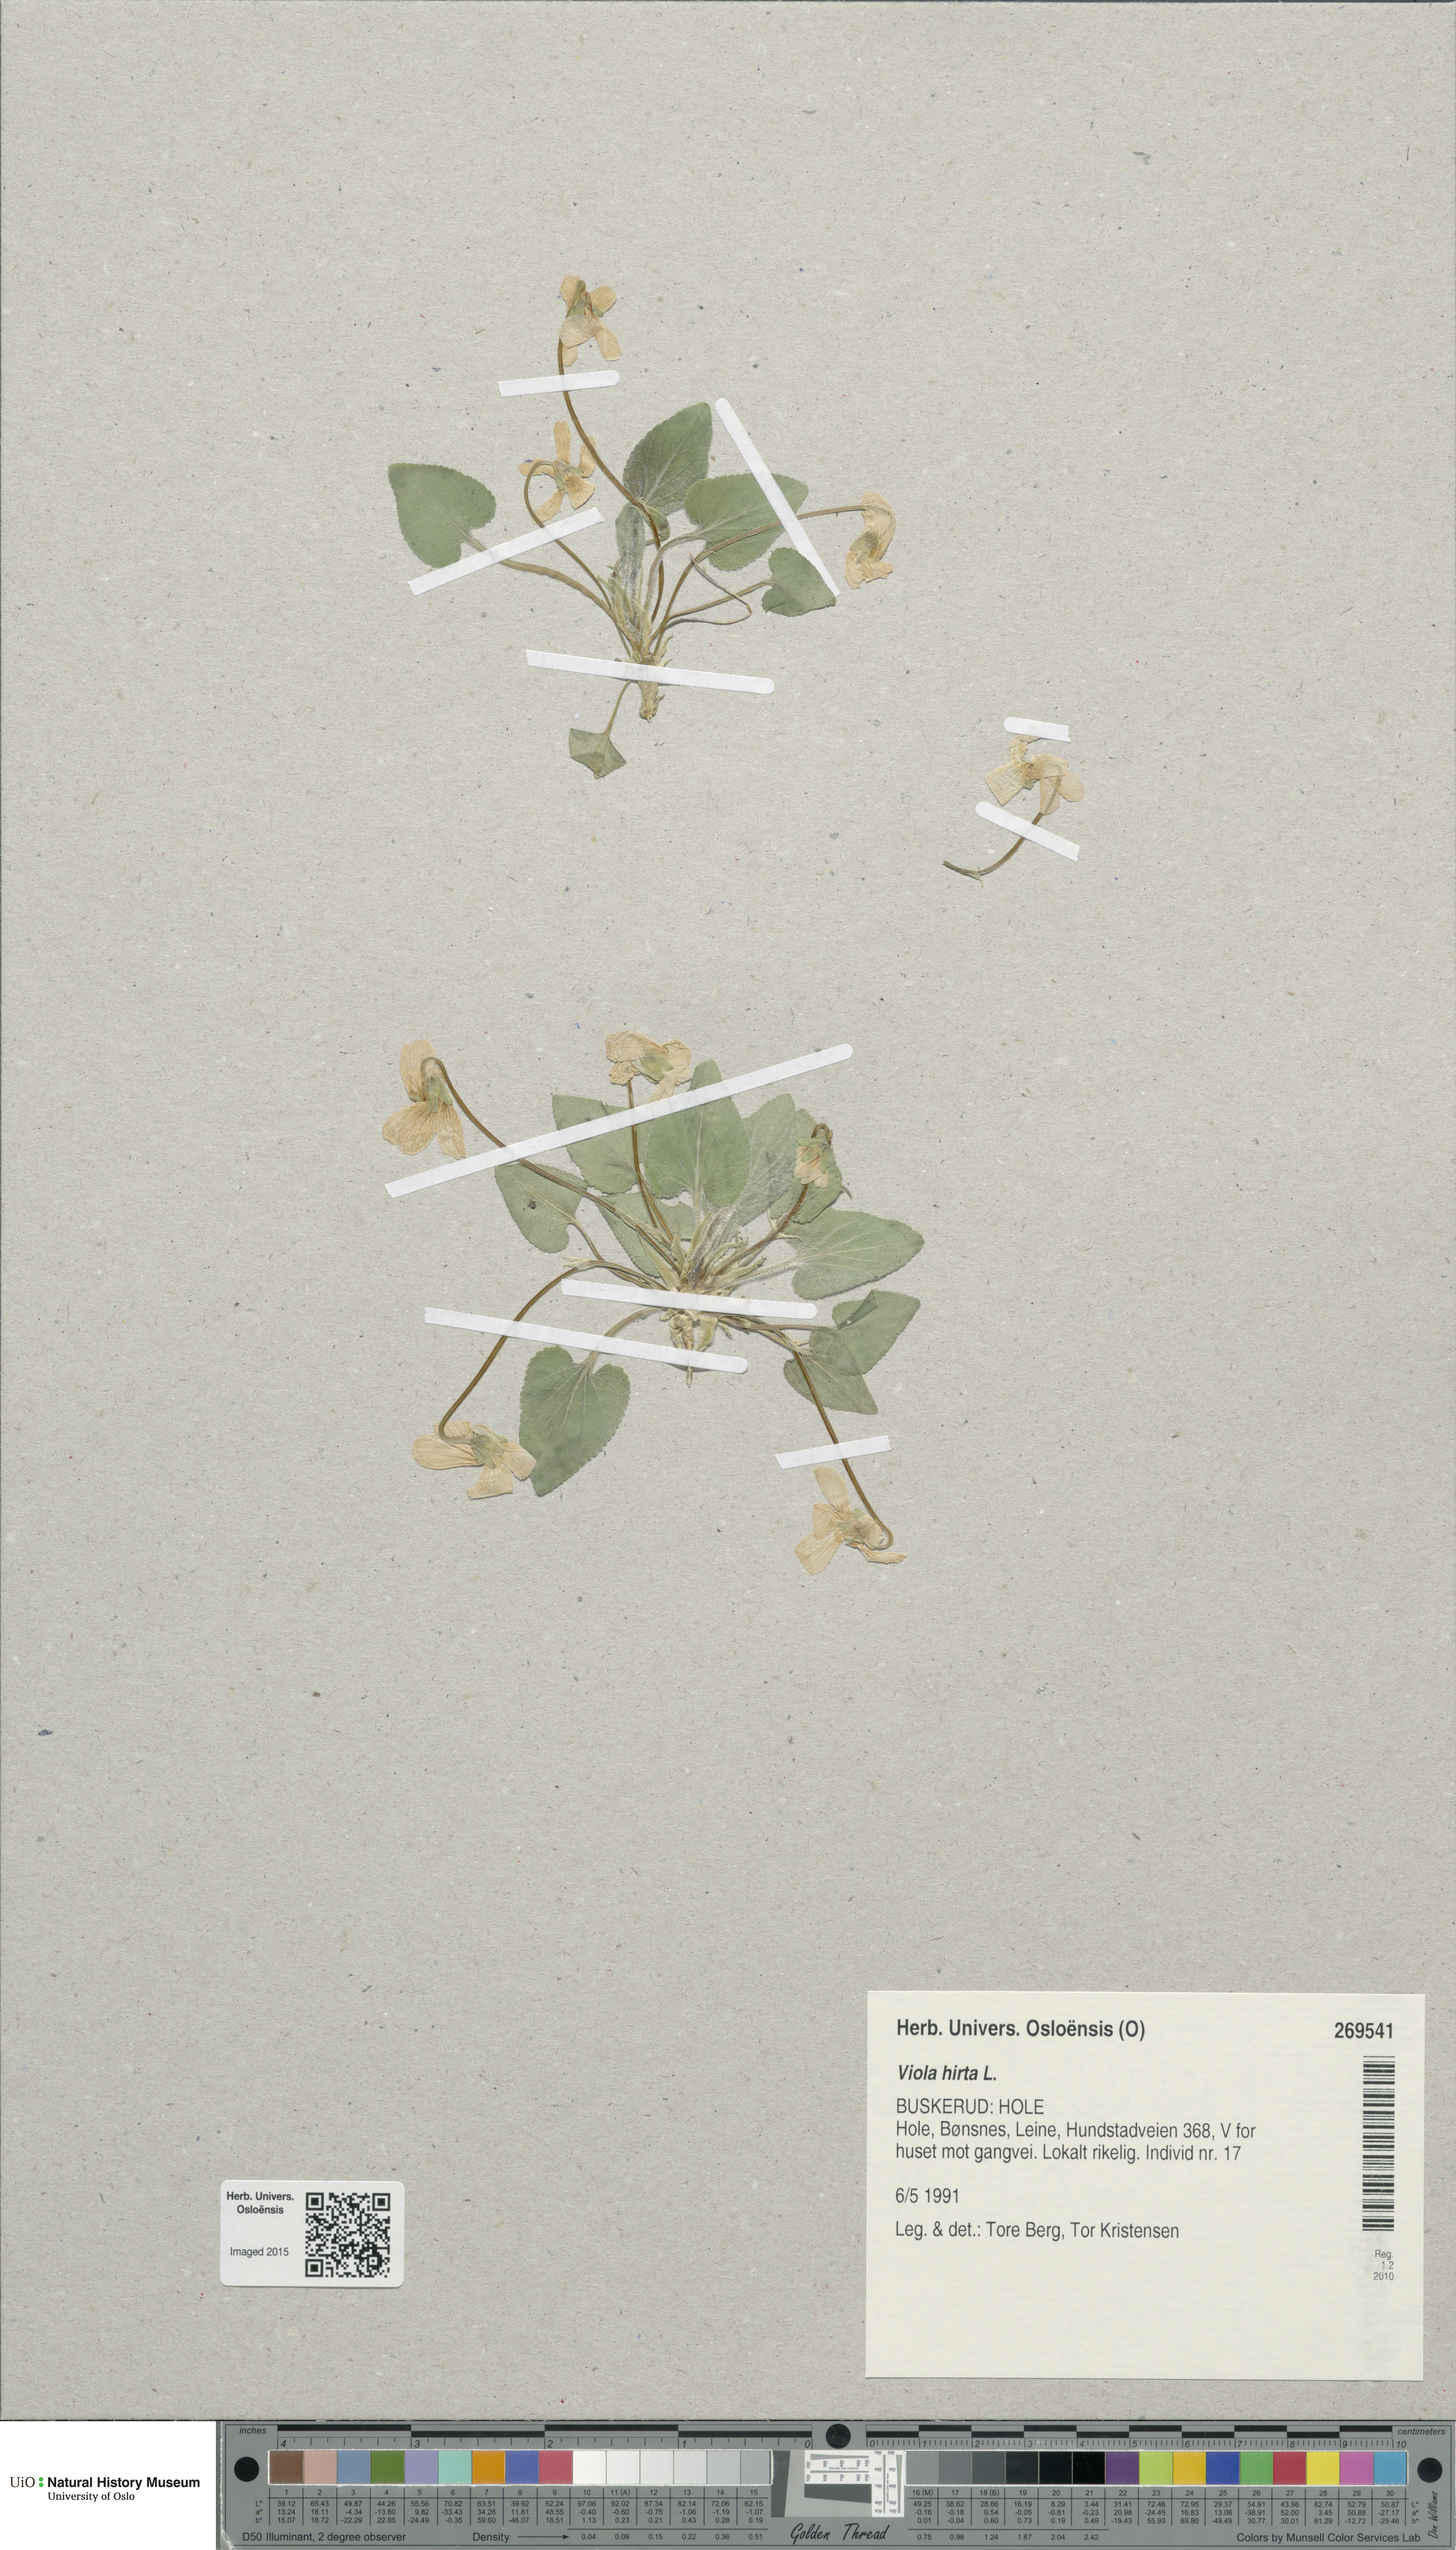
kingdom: Plantae
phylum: Tracheophyta
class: Magnoliopsida
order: Malpighiales
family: Violaceae
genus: Viola
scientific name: Viola hirta
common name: Hairy violet
